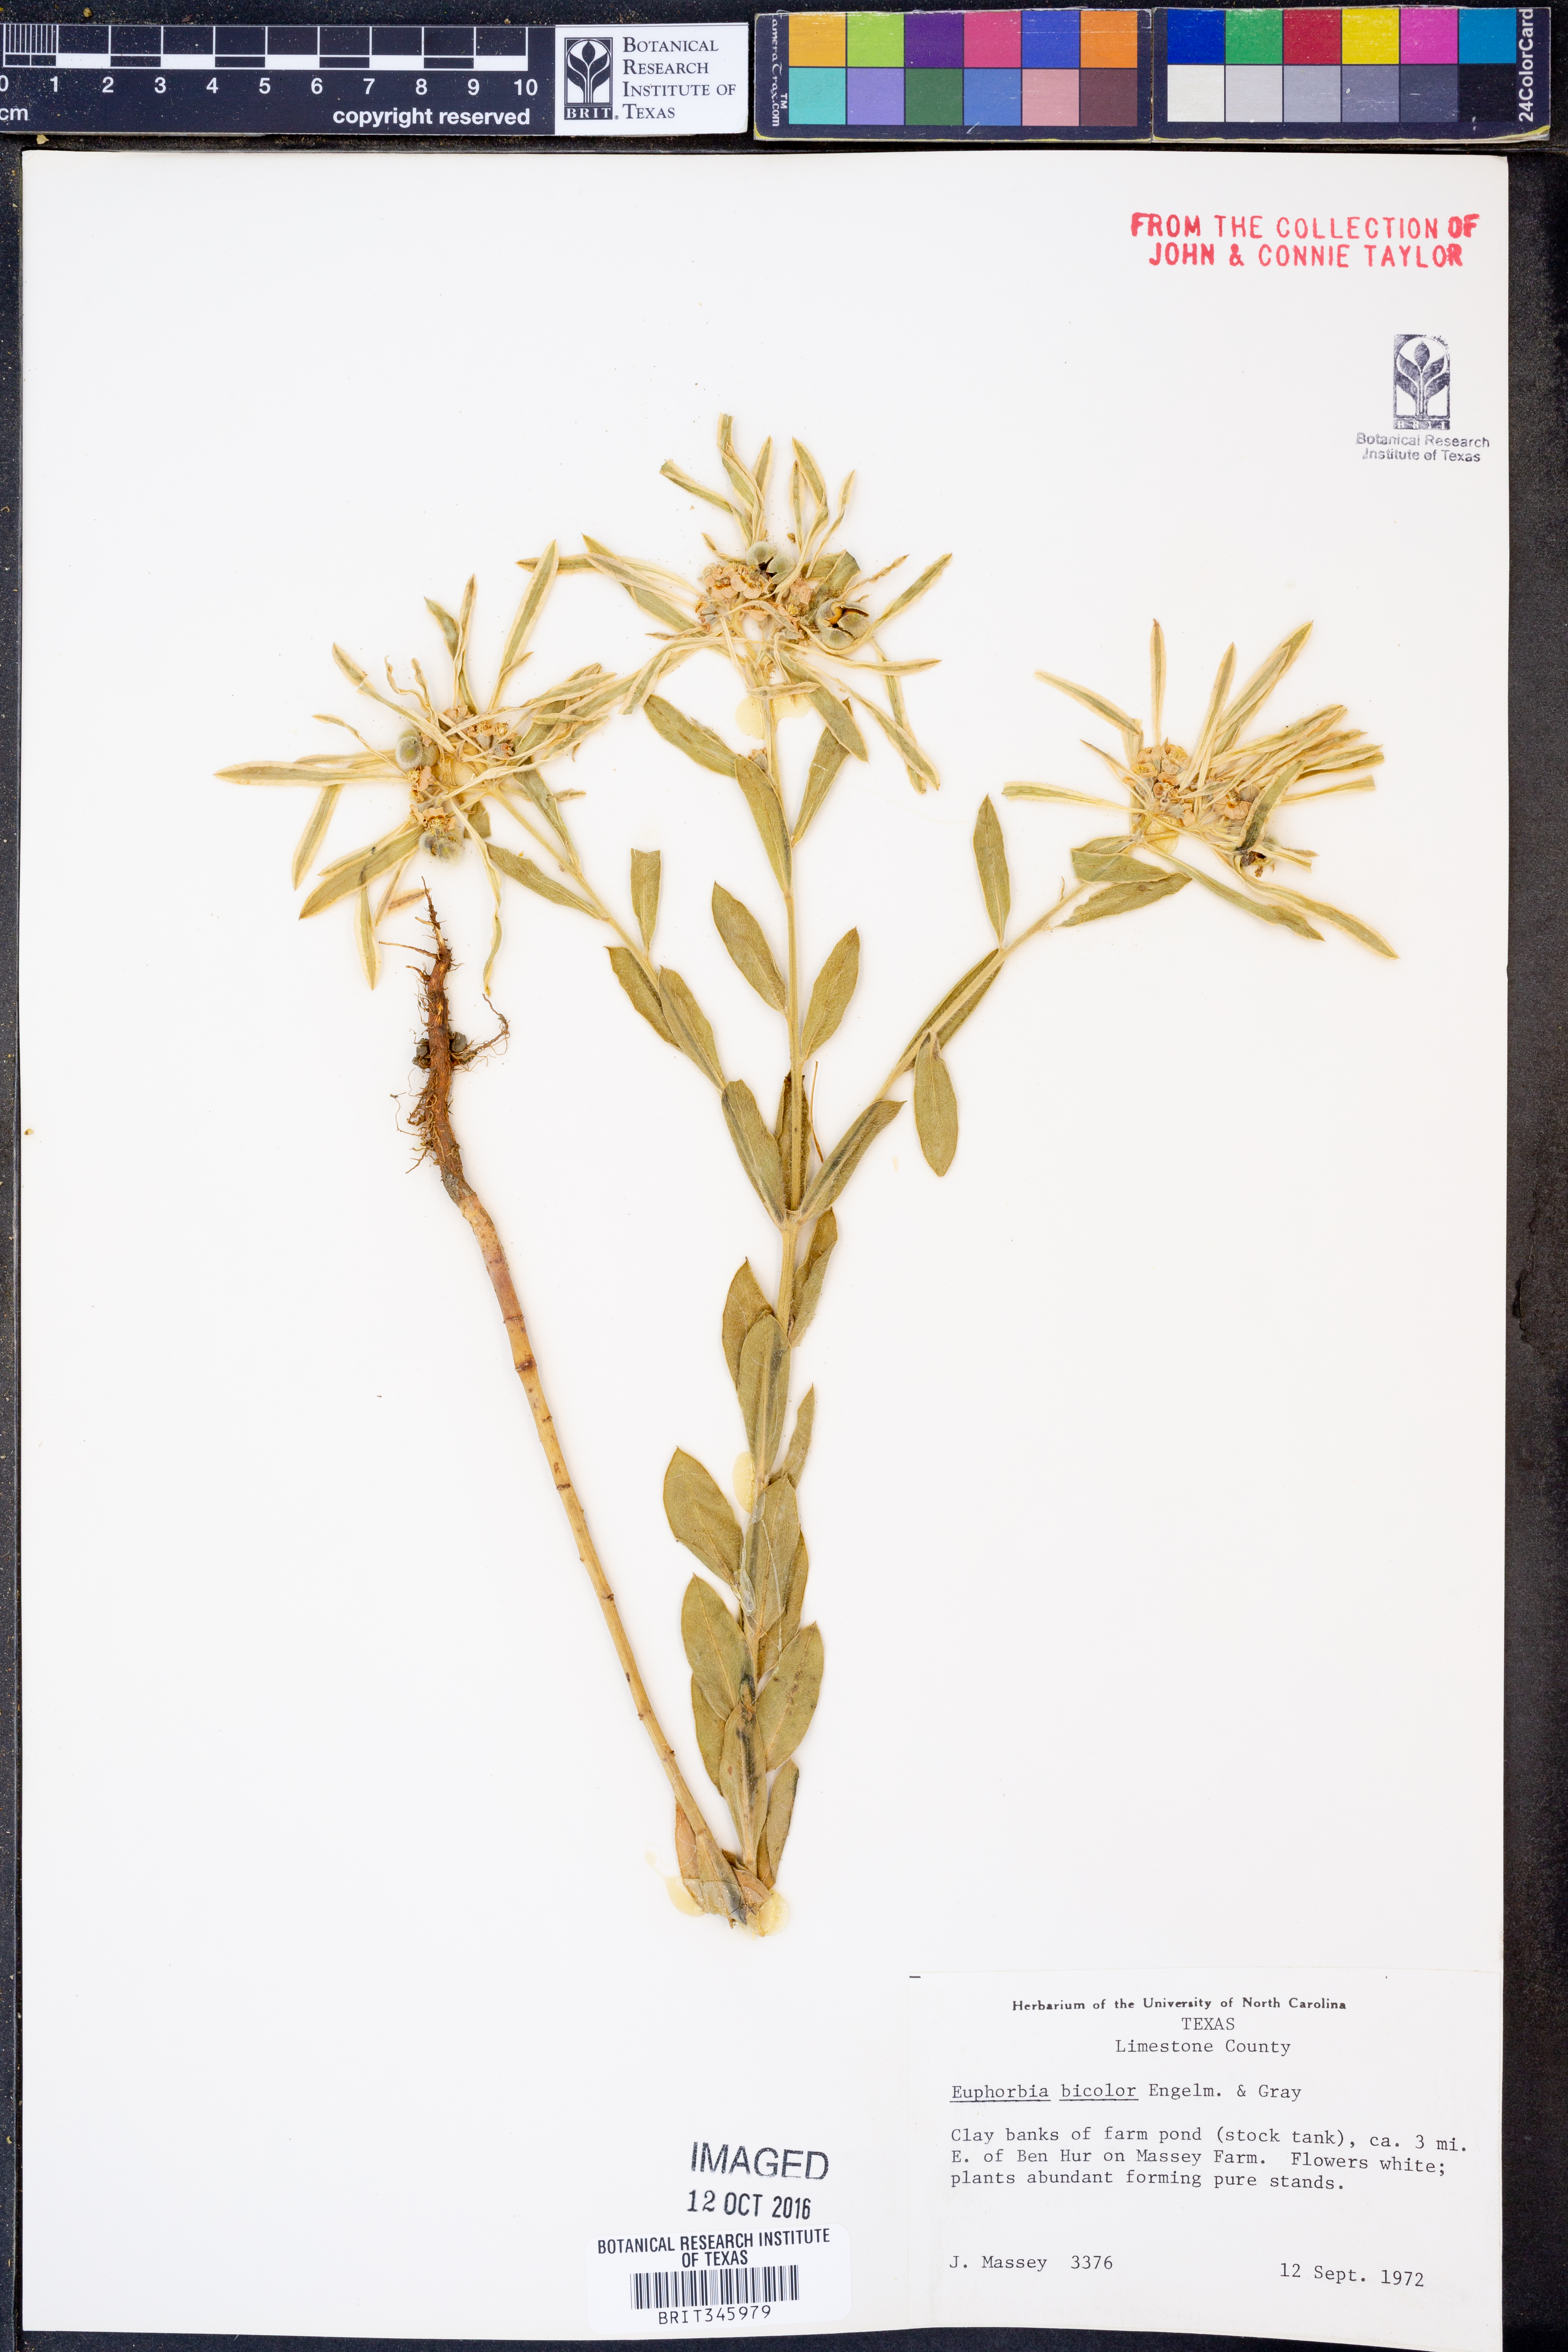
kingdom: Plantae
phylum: Tracheophyta
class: Magnoliopsida
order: Malpighiales
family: Euphorbiaceae
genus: Euphorbia
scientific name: Euphorbia bicolor
